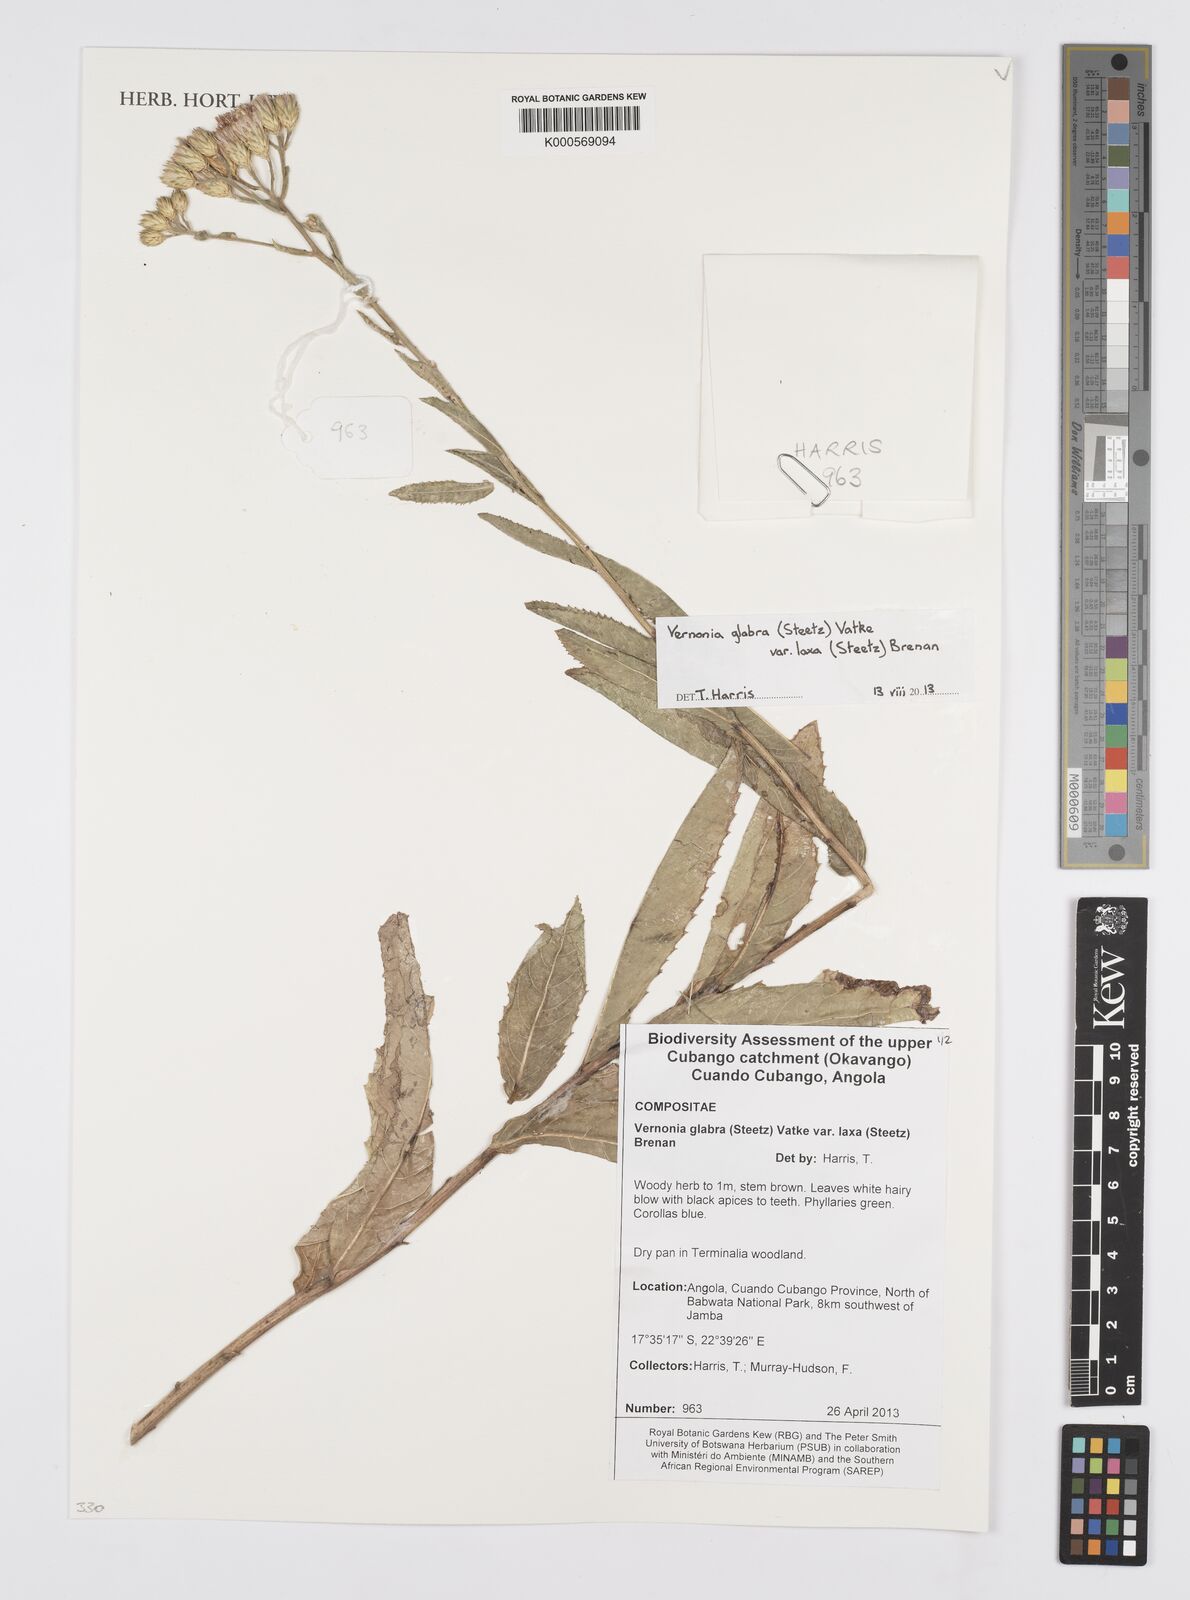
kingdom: Plantae
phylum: Tracheophyta
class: Magnoliopsida
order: Asterales
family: Asteraceae
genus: Linzia
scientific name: Linzia glabra
